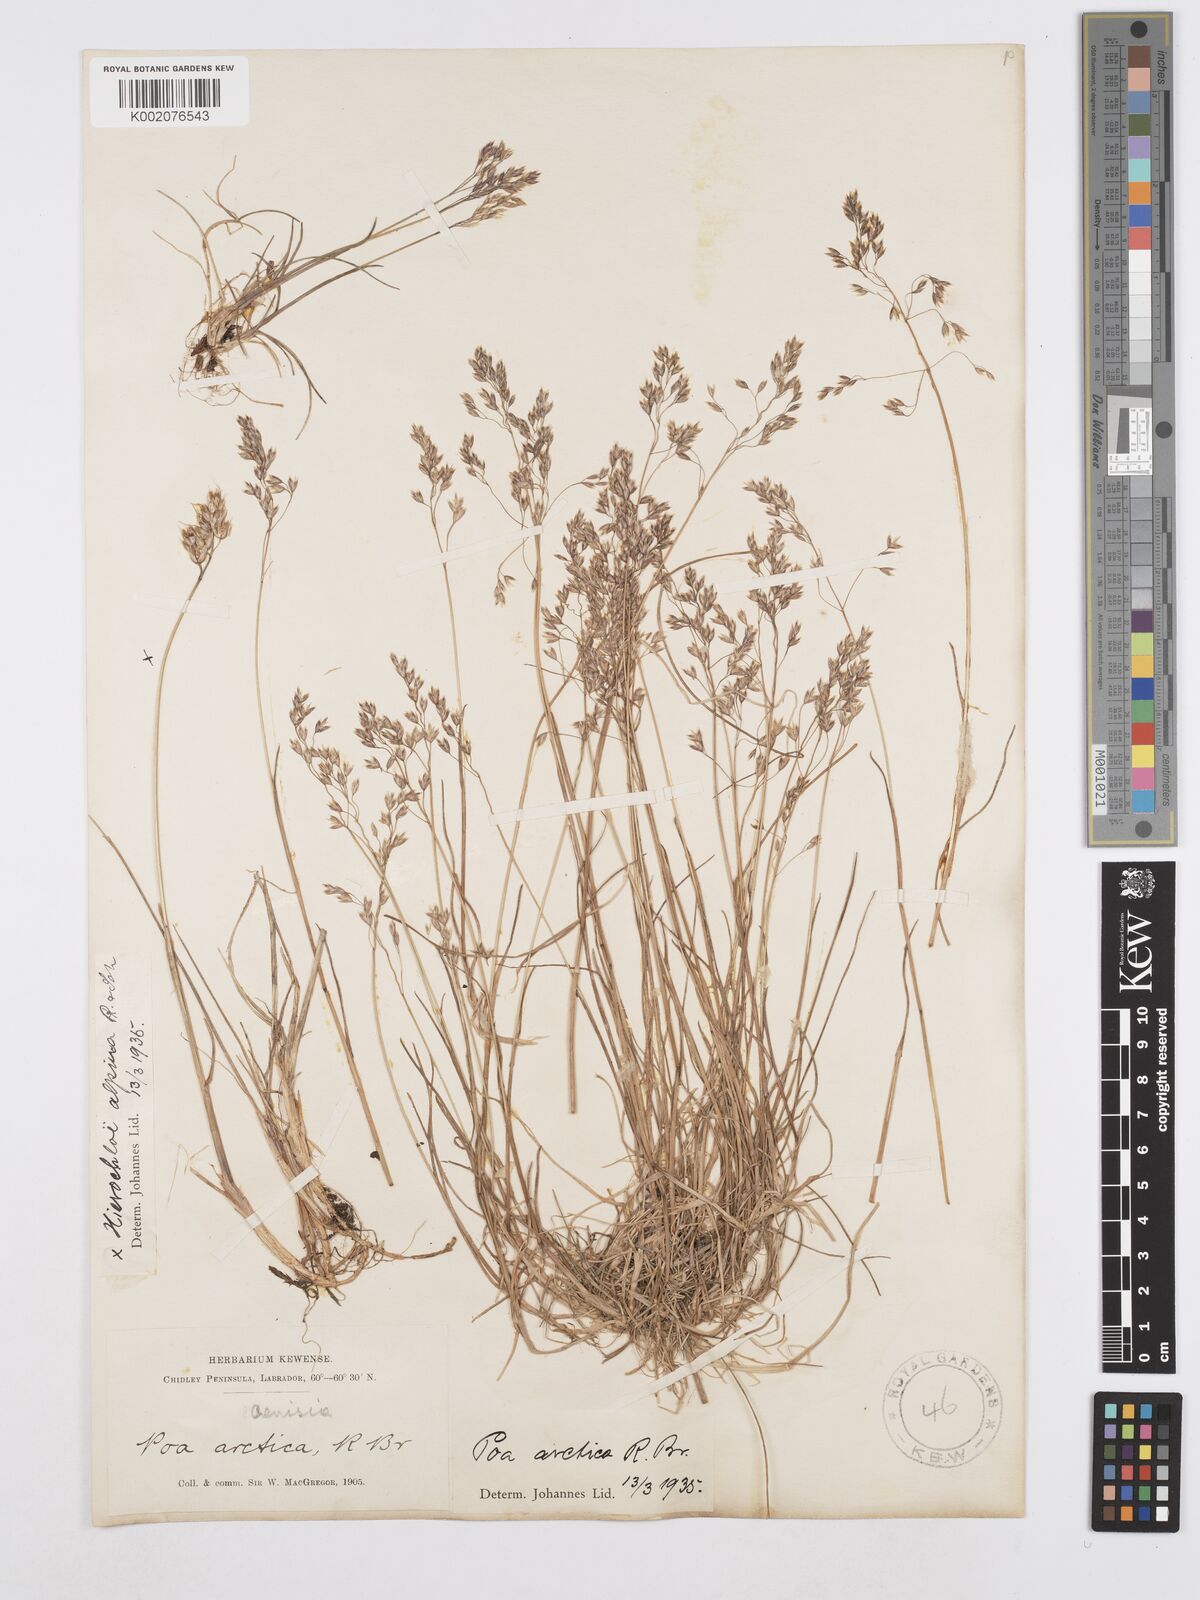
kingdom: Plantae
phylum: Tracheophyta
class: Liliopsida
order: Poales
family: Poaceae
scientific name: Poaceae
